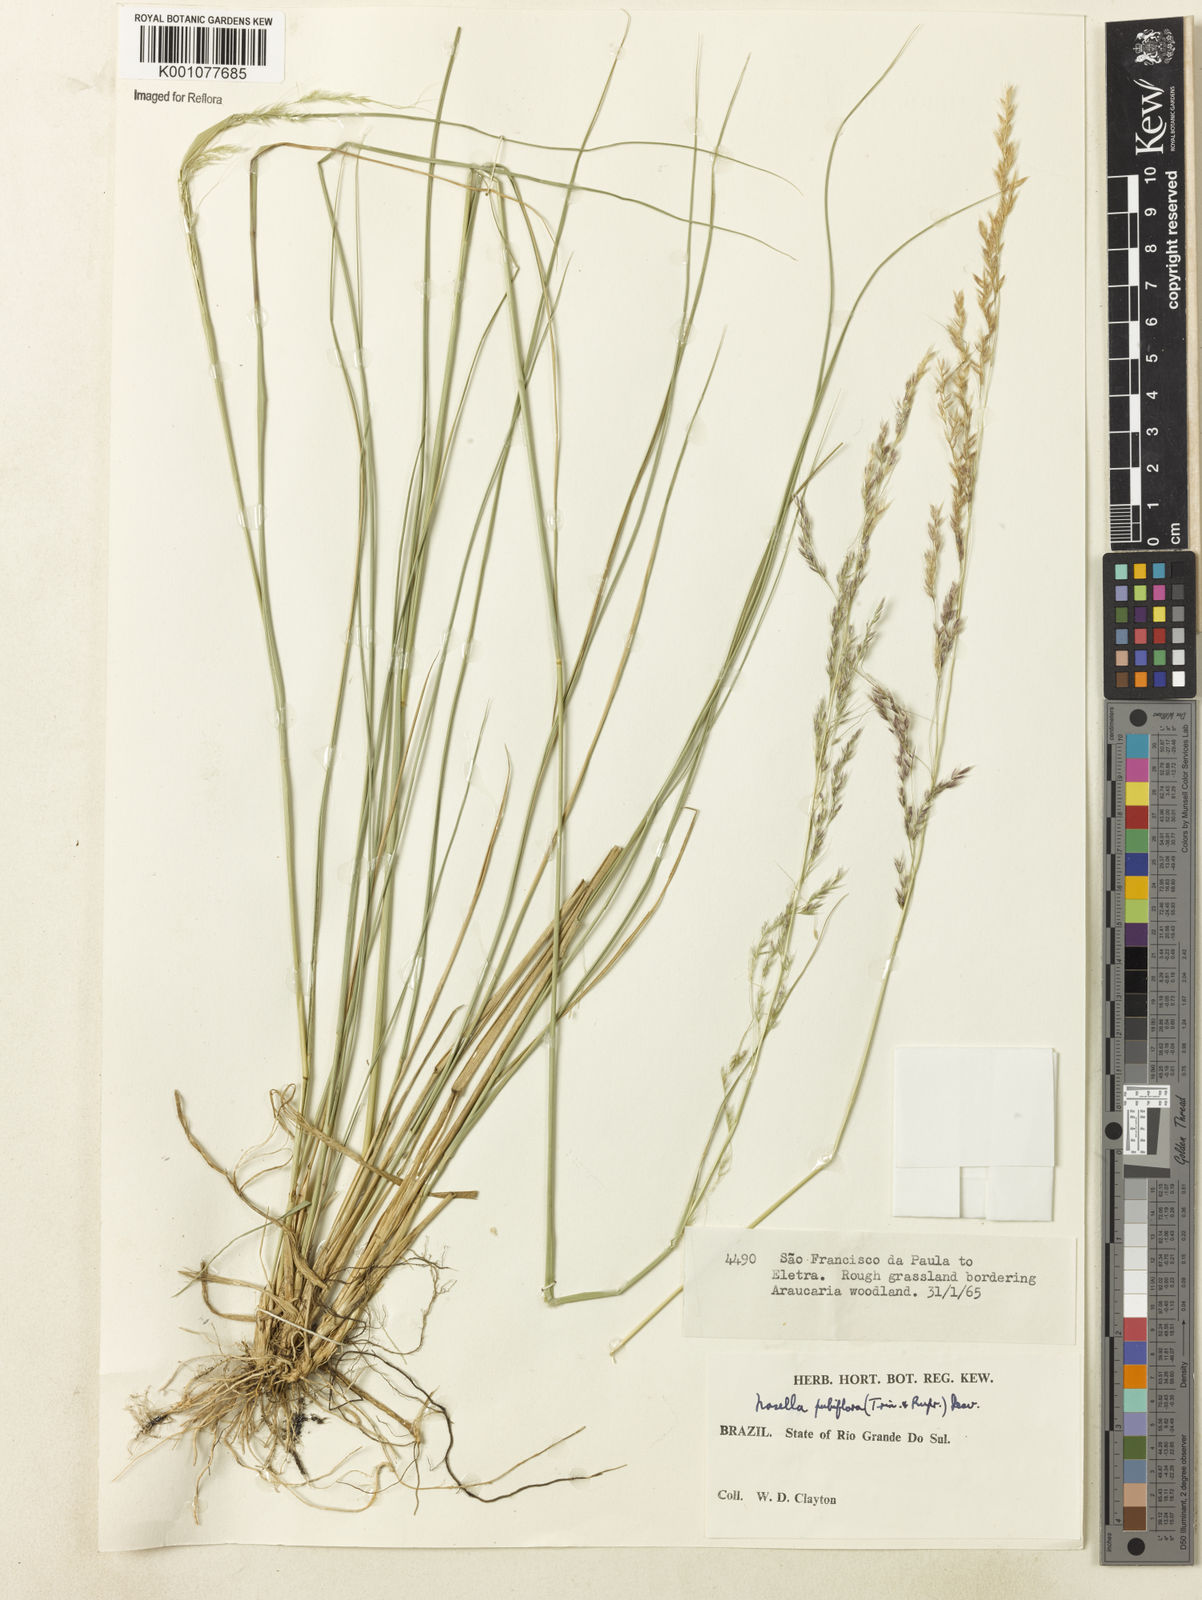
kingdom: Plantae
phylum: Tracheophyta
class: Liliopsida
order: Poales
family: Poaceae
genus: Jarava
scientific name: Jarava filifolia
